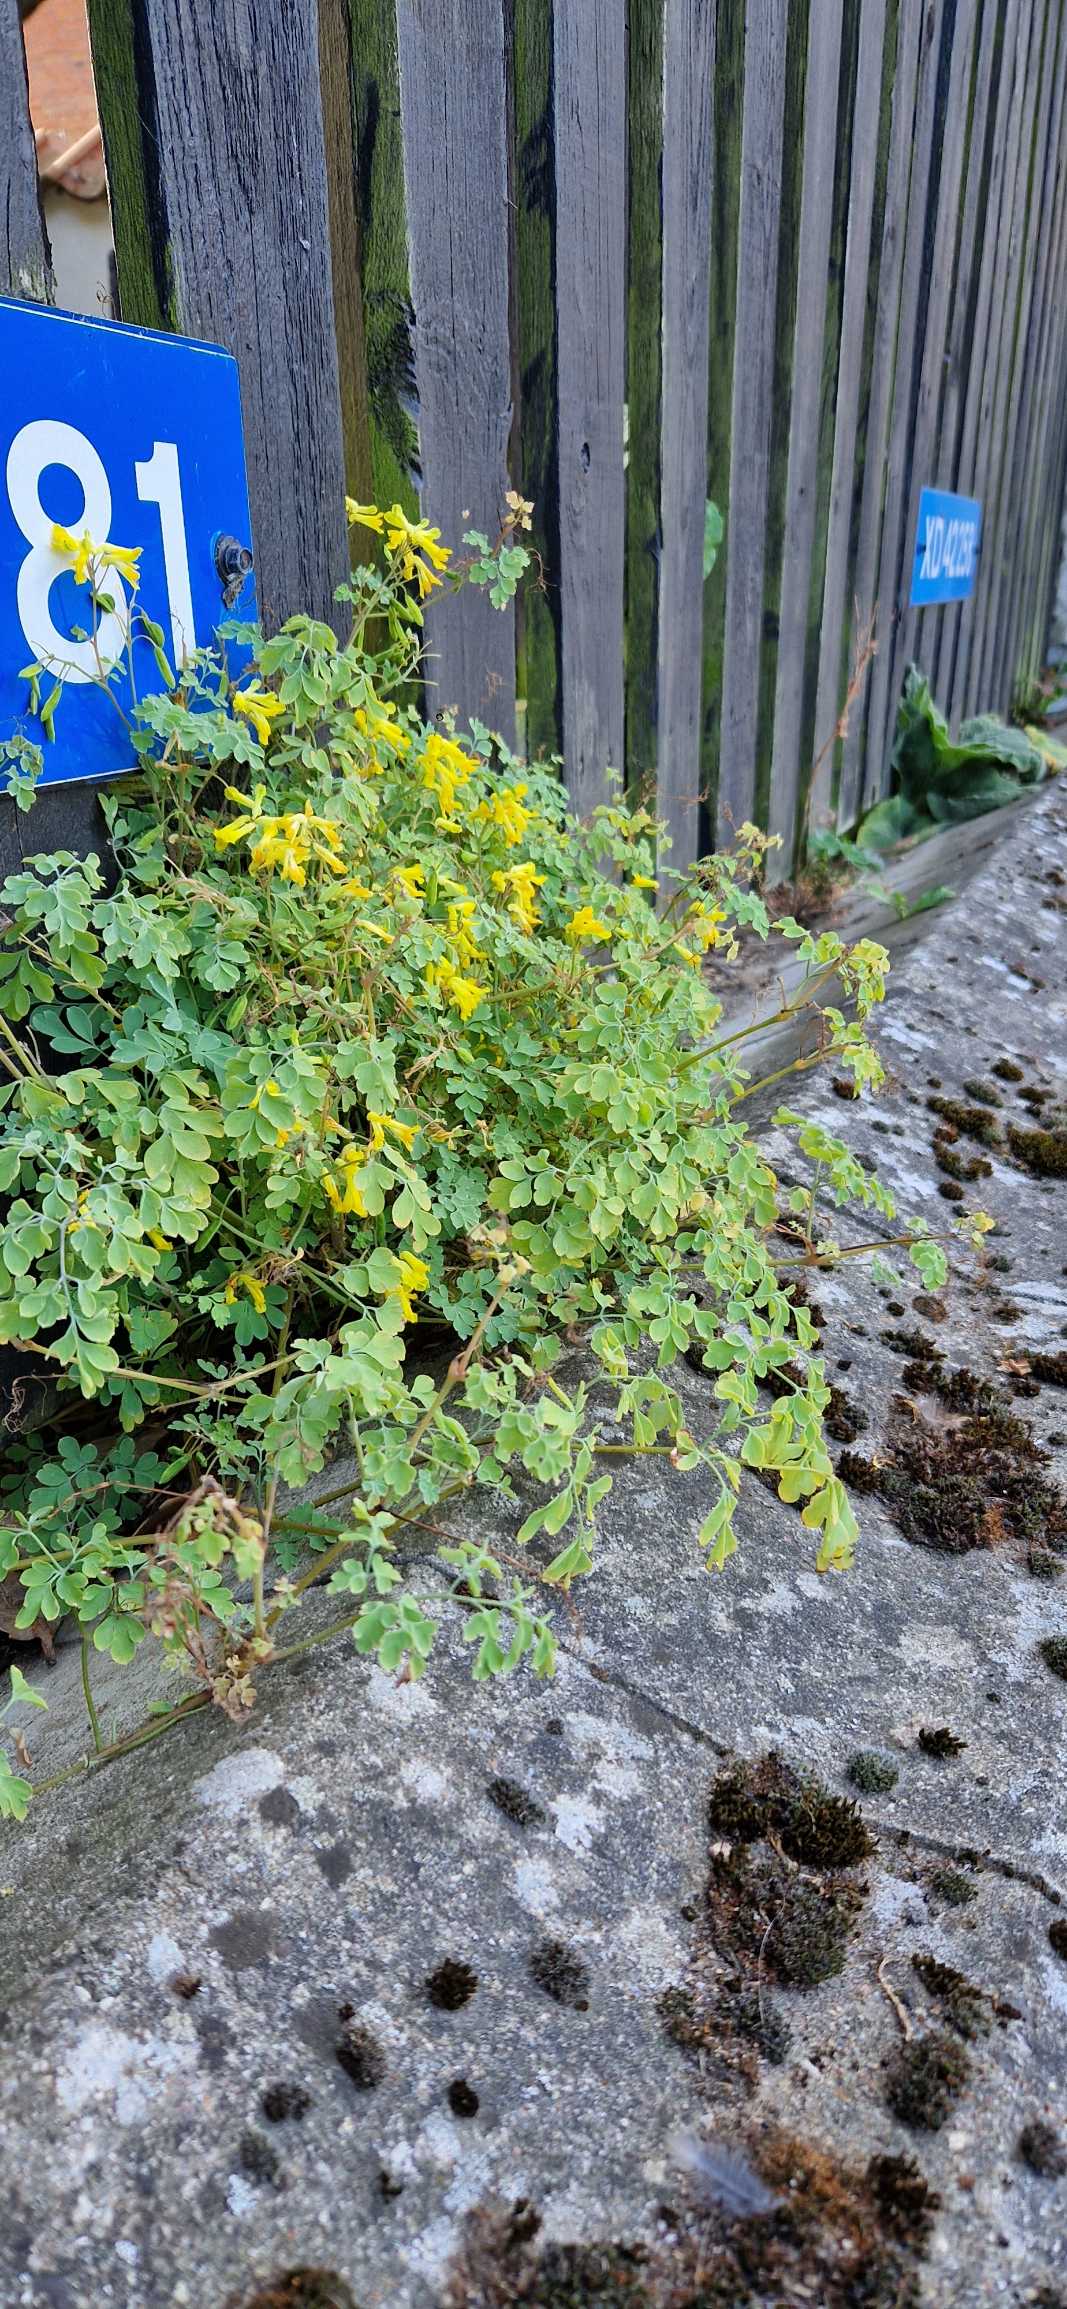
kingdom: Plantae
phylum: Tracheophyta
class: Magnoliopsida
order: Ranunculales
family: Papaveraceae
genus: Pseudofumaria
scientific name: Pseudofumaria lutea
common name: Gul lærkespore
